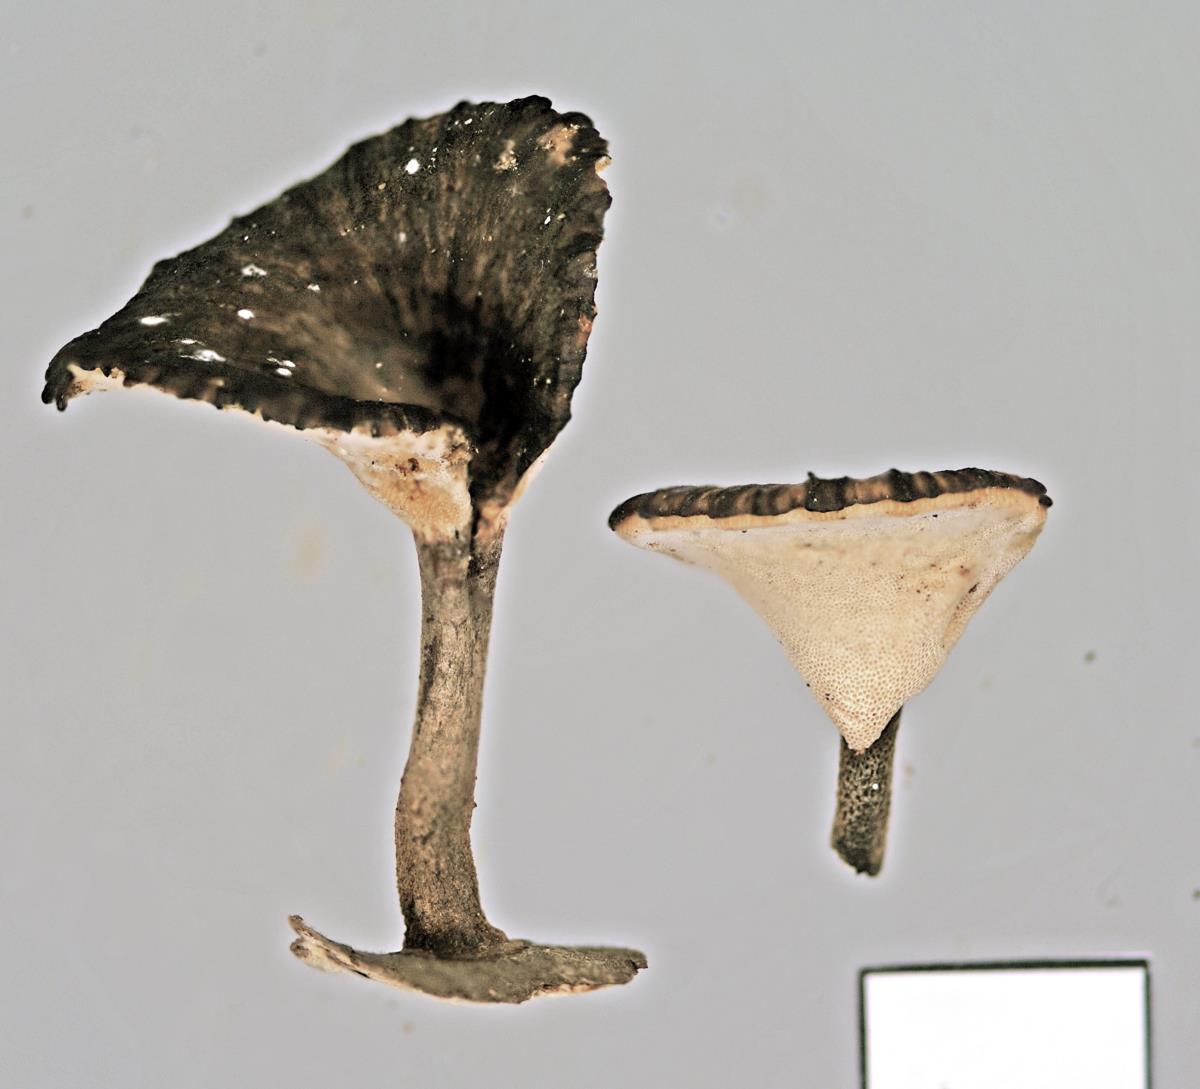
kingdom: Fungi
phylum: Basidiomycota
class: Agaricomycetes
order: Polyporales
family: Polyporaceae
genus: Picipes
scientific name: Picipes dictyopus
